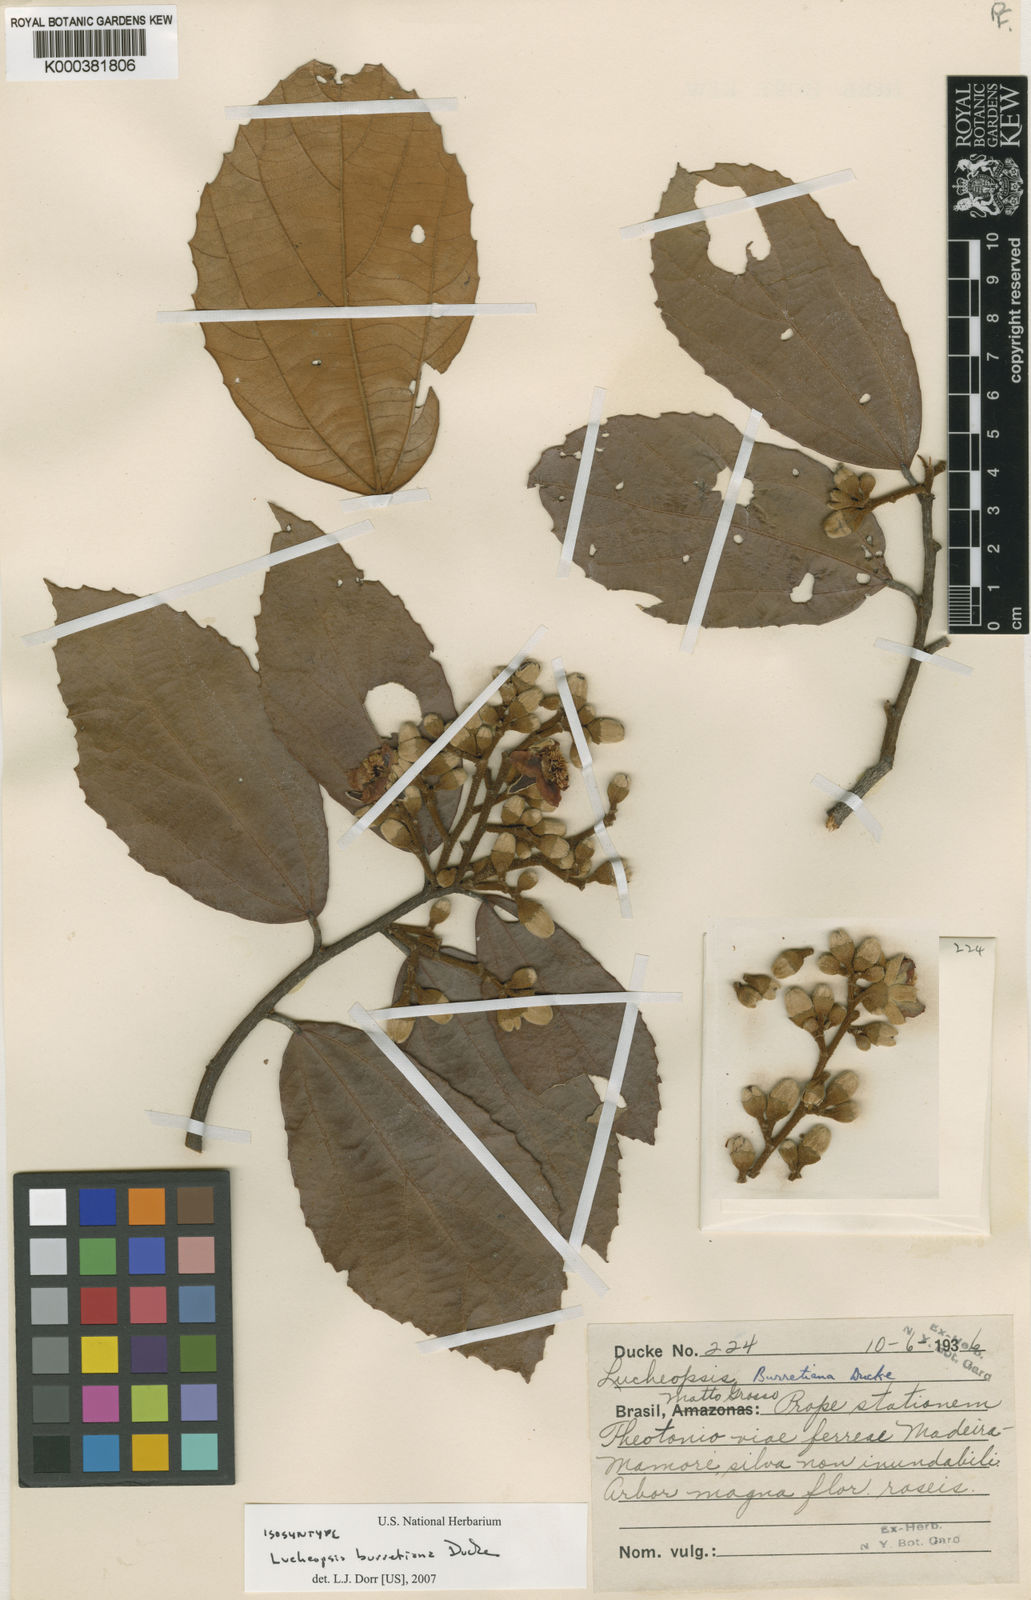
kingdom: Plantae
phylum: Tracheophyta
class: Magnoliopsida
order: Malvales
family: Malvaceae
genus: Lueheopsis
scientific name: Lueheopsis burretiana
